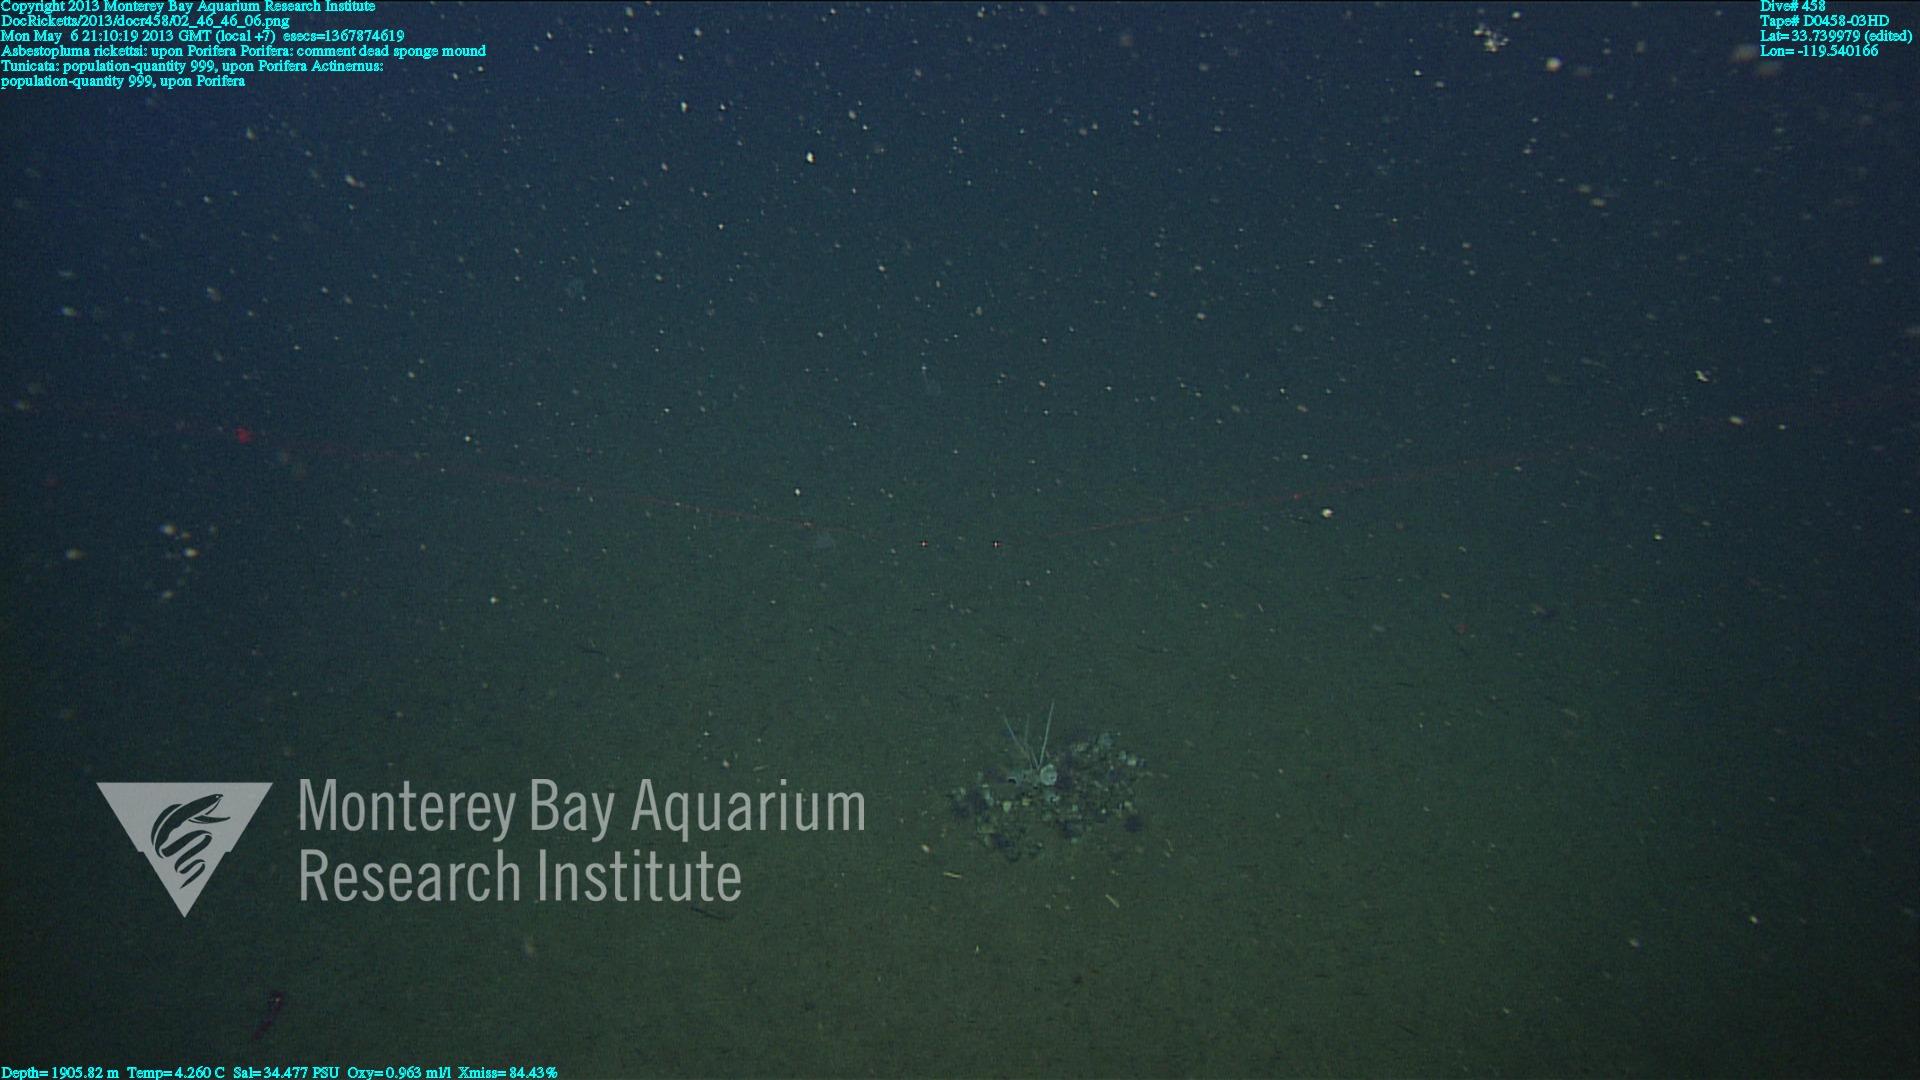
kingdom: Animalia
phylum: Porifera
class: Demospongiae
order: Poecilosclerida
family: Cladorhizidae
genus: Asbestopluma
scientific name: Asbestopluma rickettsi
